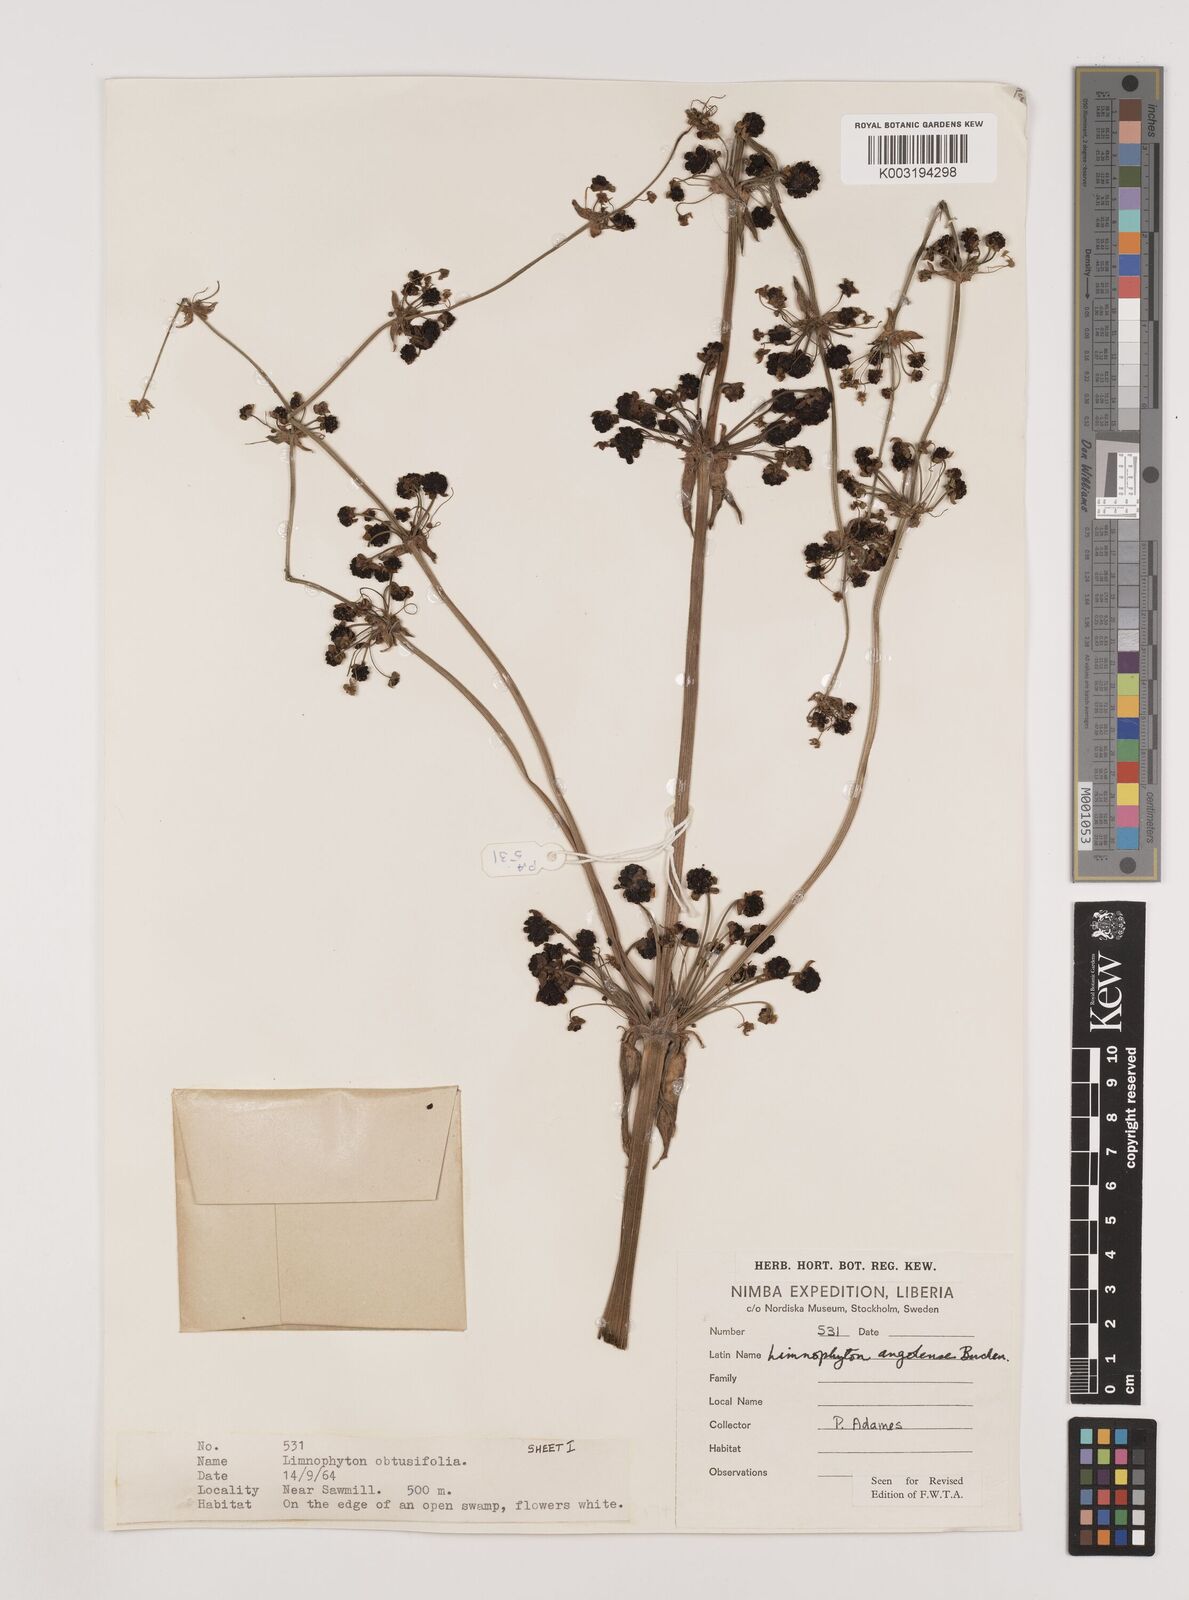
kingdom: Plantae
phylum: Tracheophyta
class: Liliopsida
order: Alismatales
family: Alismataceae
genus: Limnophyton
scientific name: Limnophyton angolense
